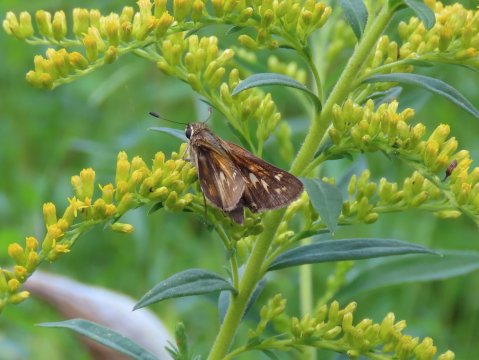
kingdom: Animalia
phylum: Arthropoda
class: Insecta
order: Lepidoptera
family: Hesperiidae
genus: Atalopedes
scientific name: Atalopedes campestris
